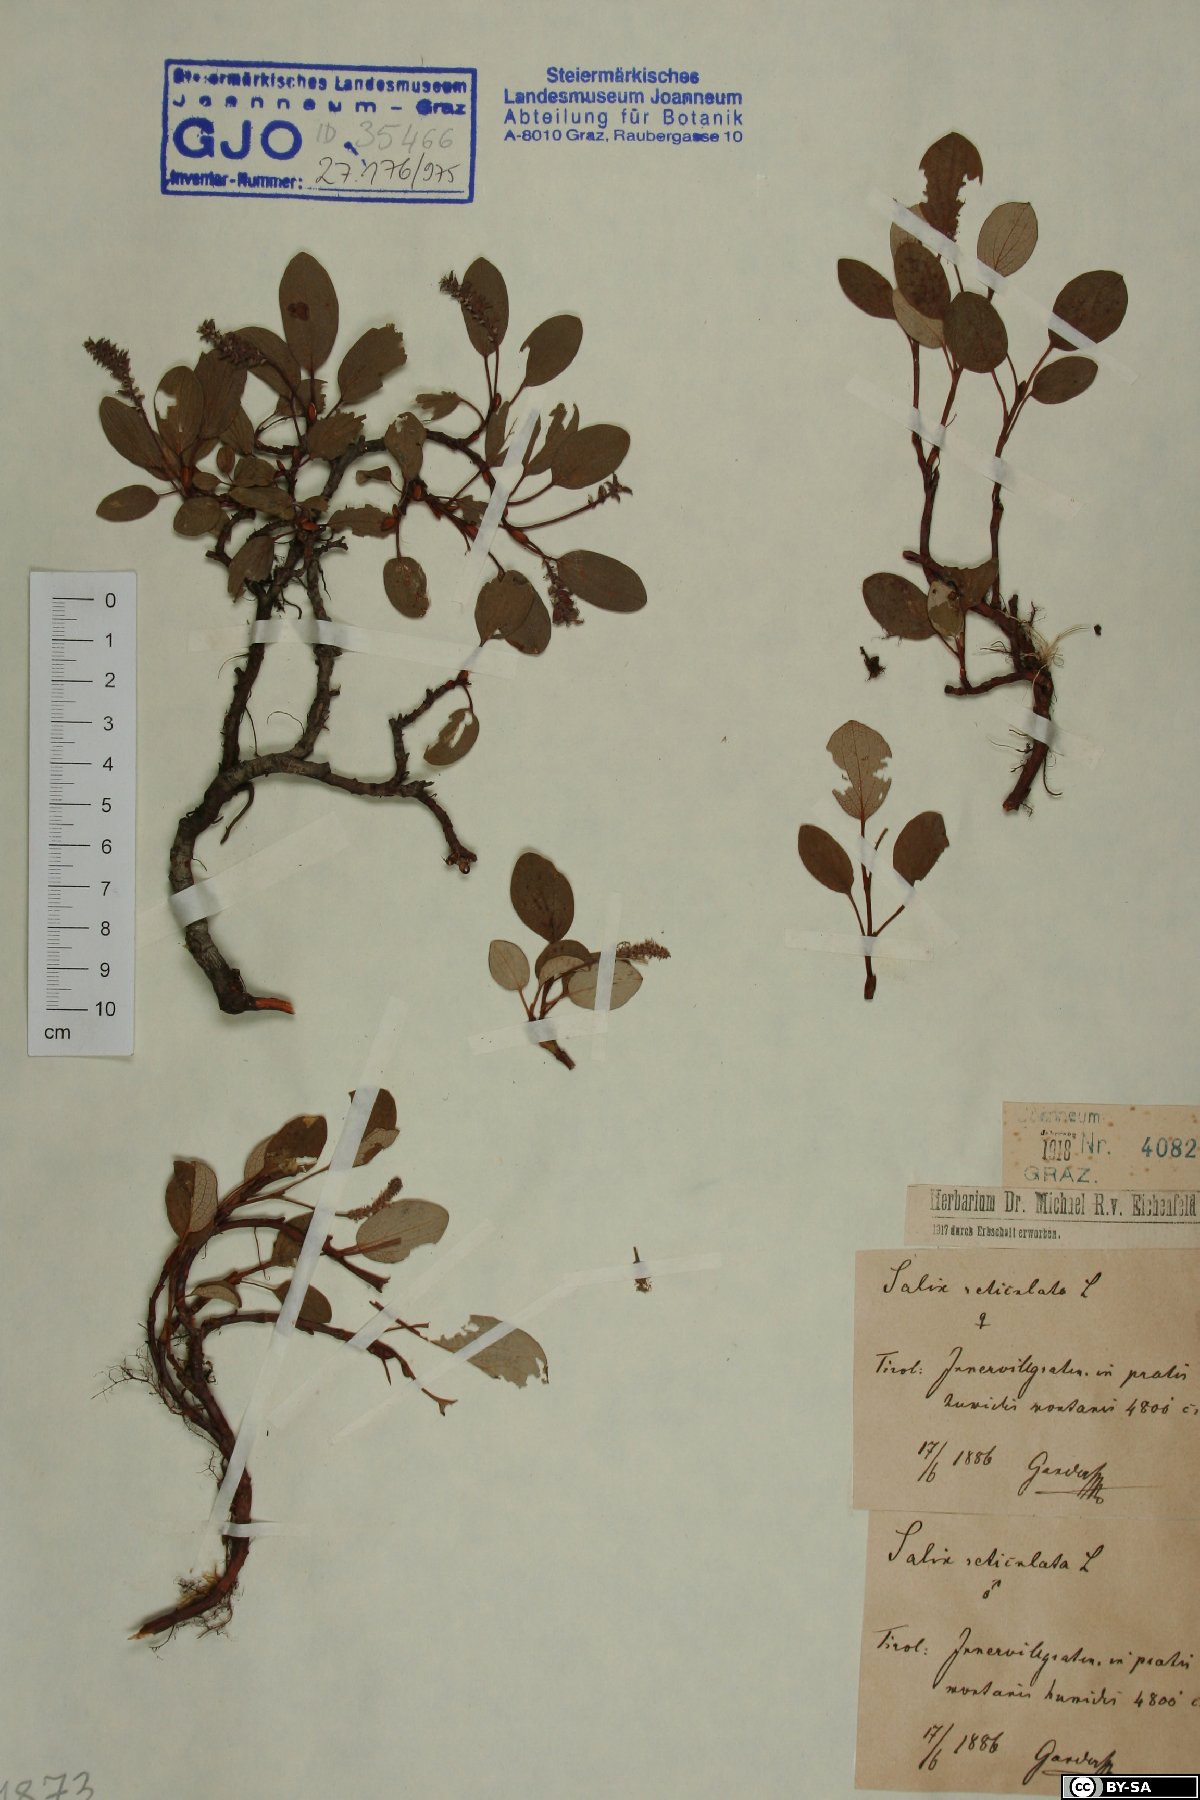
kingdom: Plantae
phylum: Tracheophyta
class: Magnoliopsida
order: Malpighiales
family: Salicaceae
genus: Salix
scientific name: Salix reticulata
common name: Net-leaved willow
